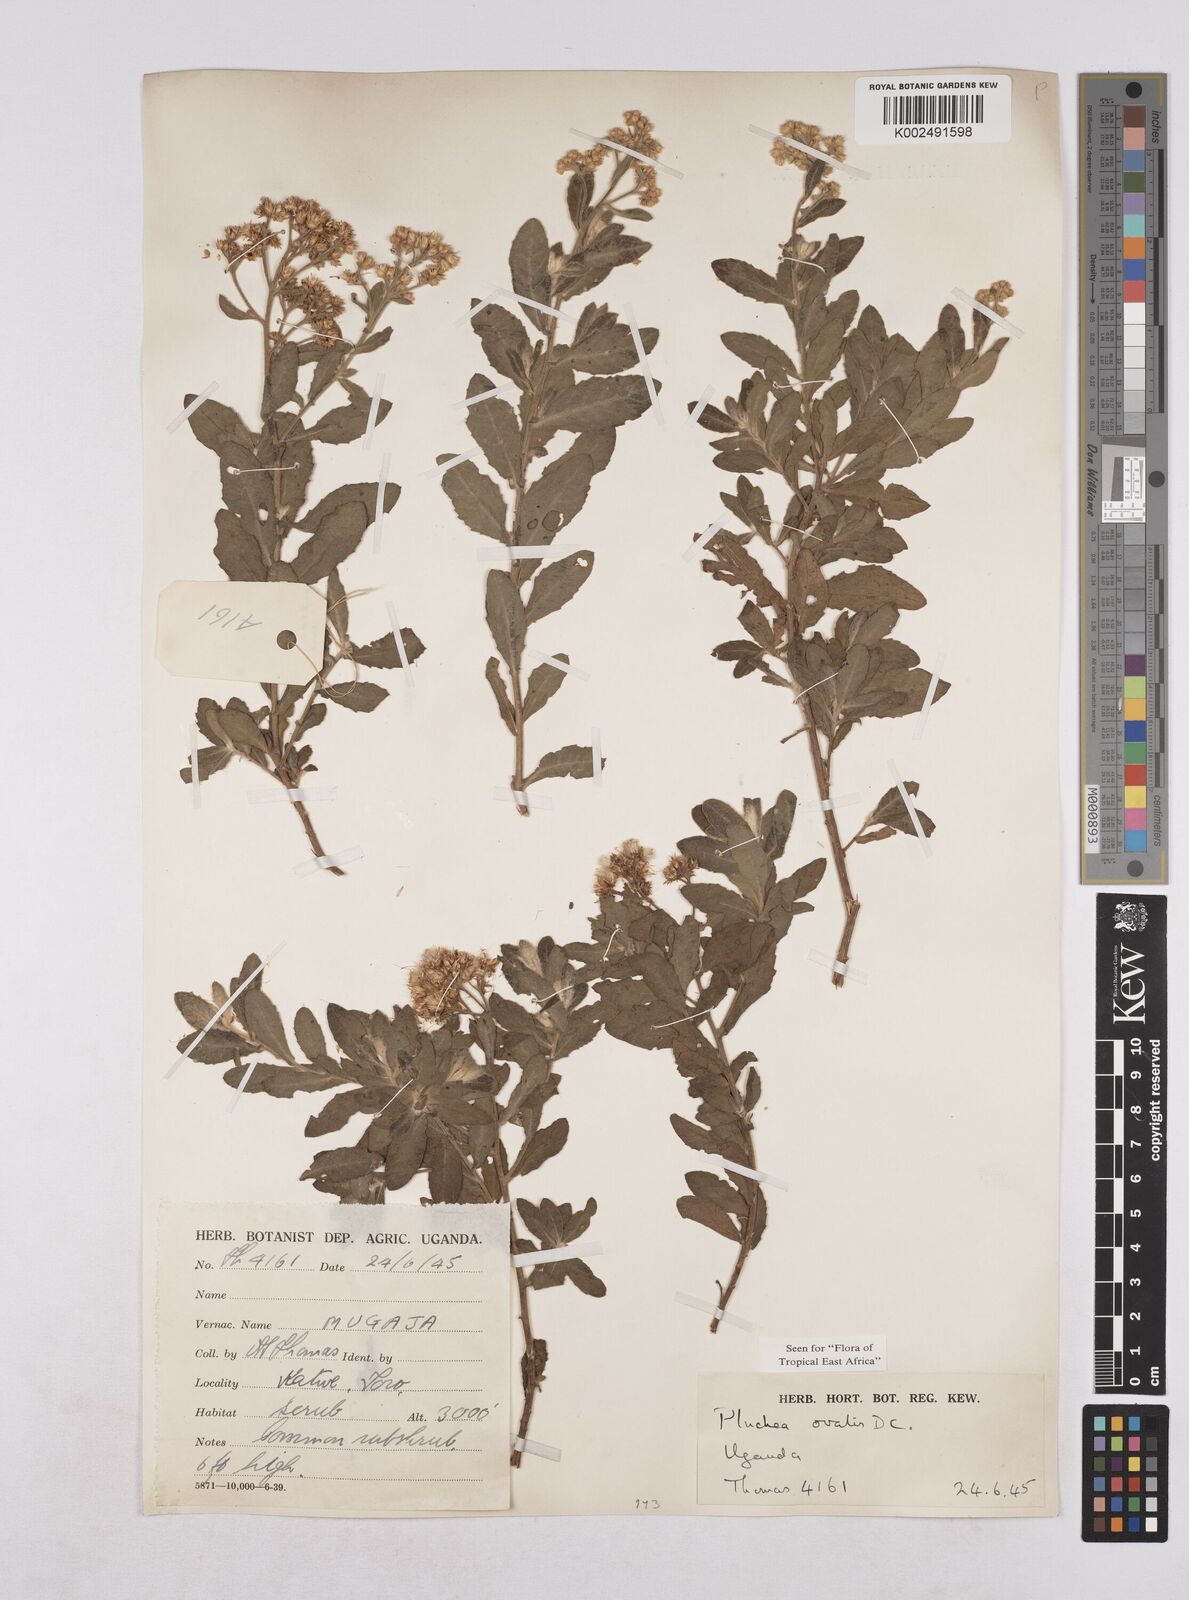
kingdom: Plantae
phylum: Tracheophyta
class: Magnoliopsida
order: Asterales
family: Asteraceae
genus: Pluchea
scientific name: Pluchea ovalis
